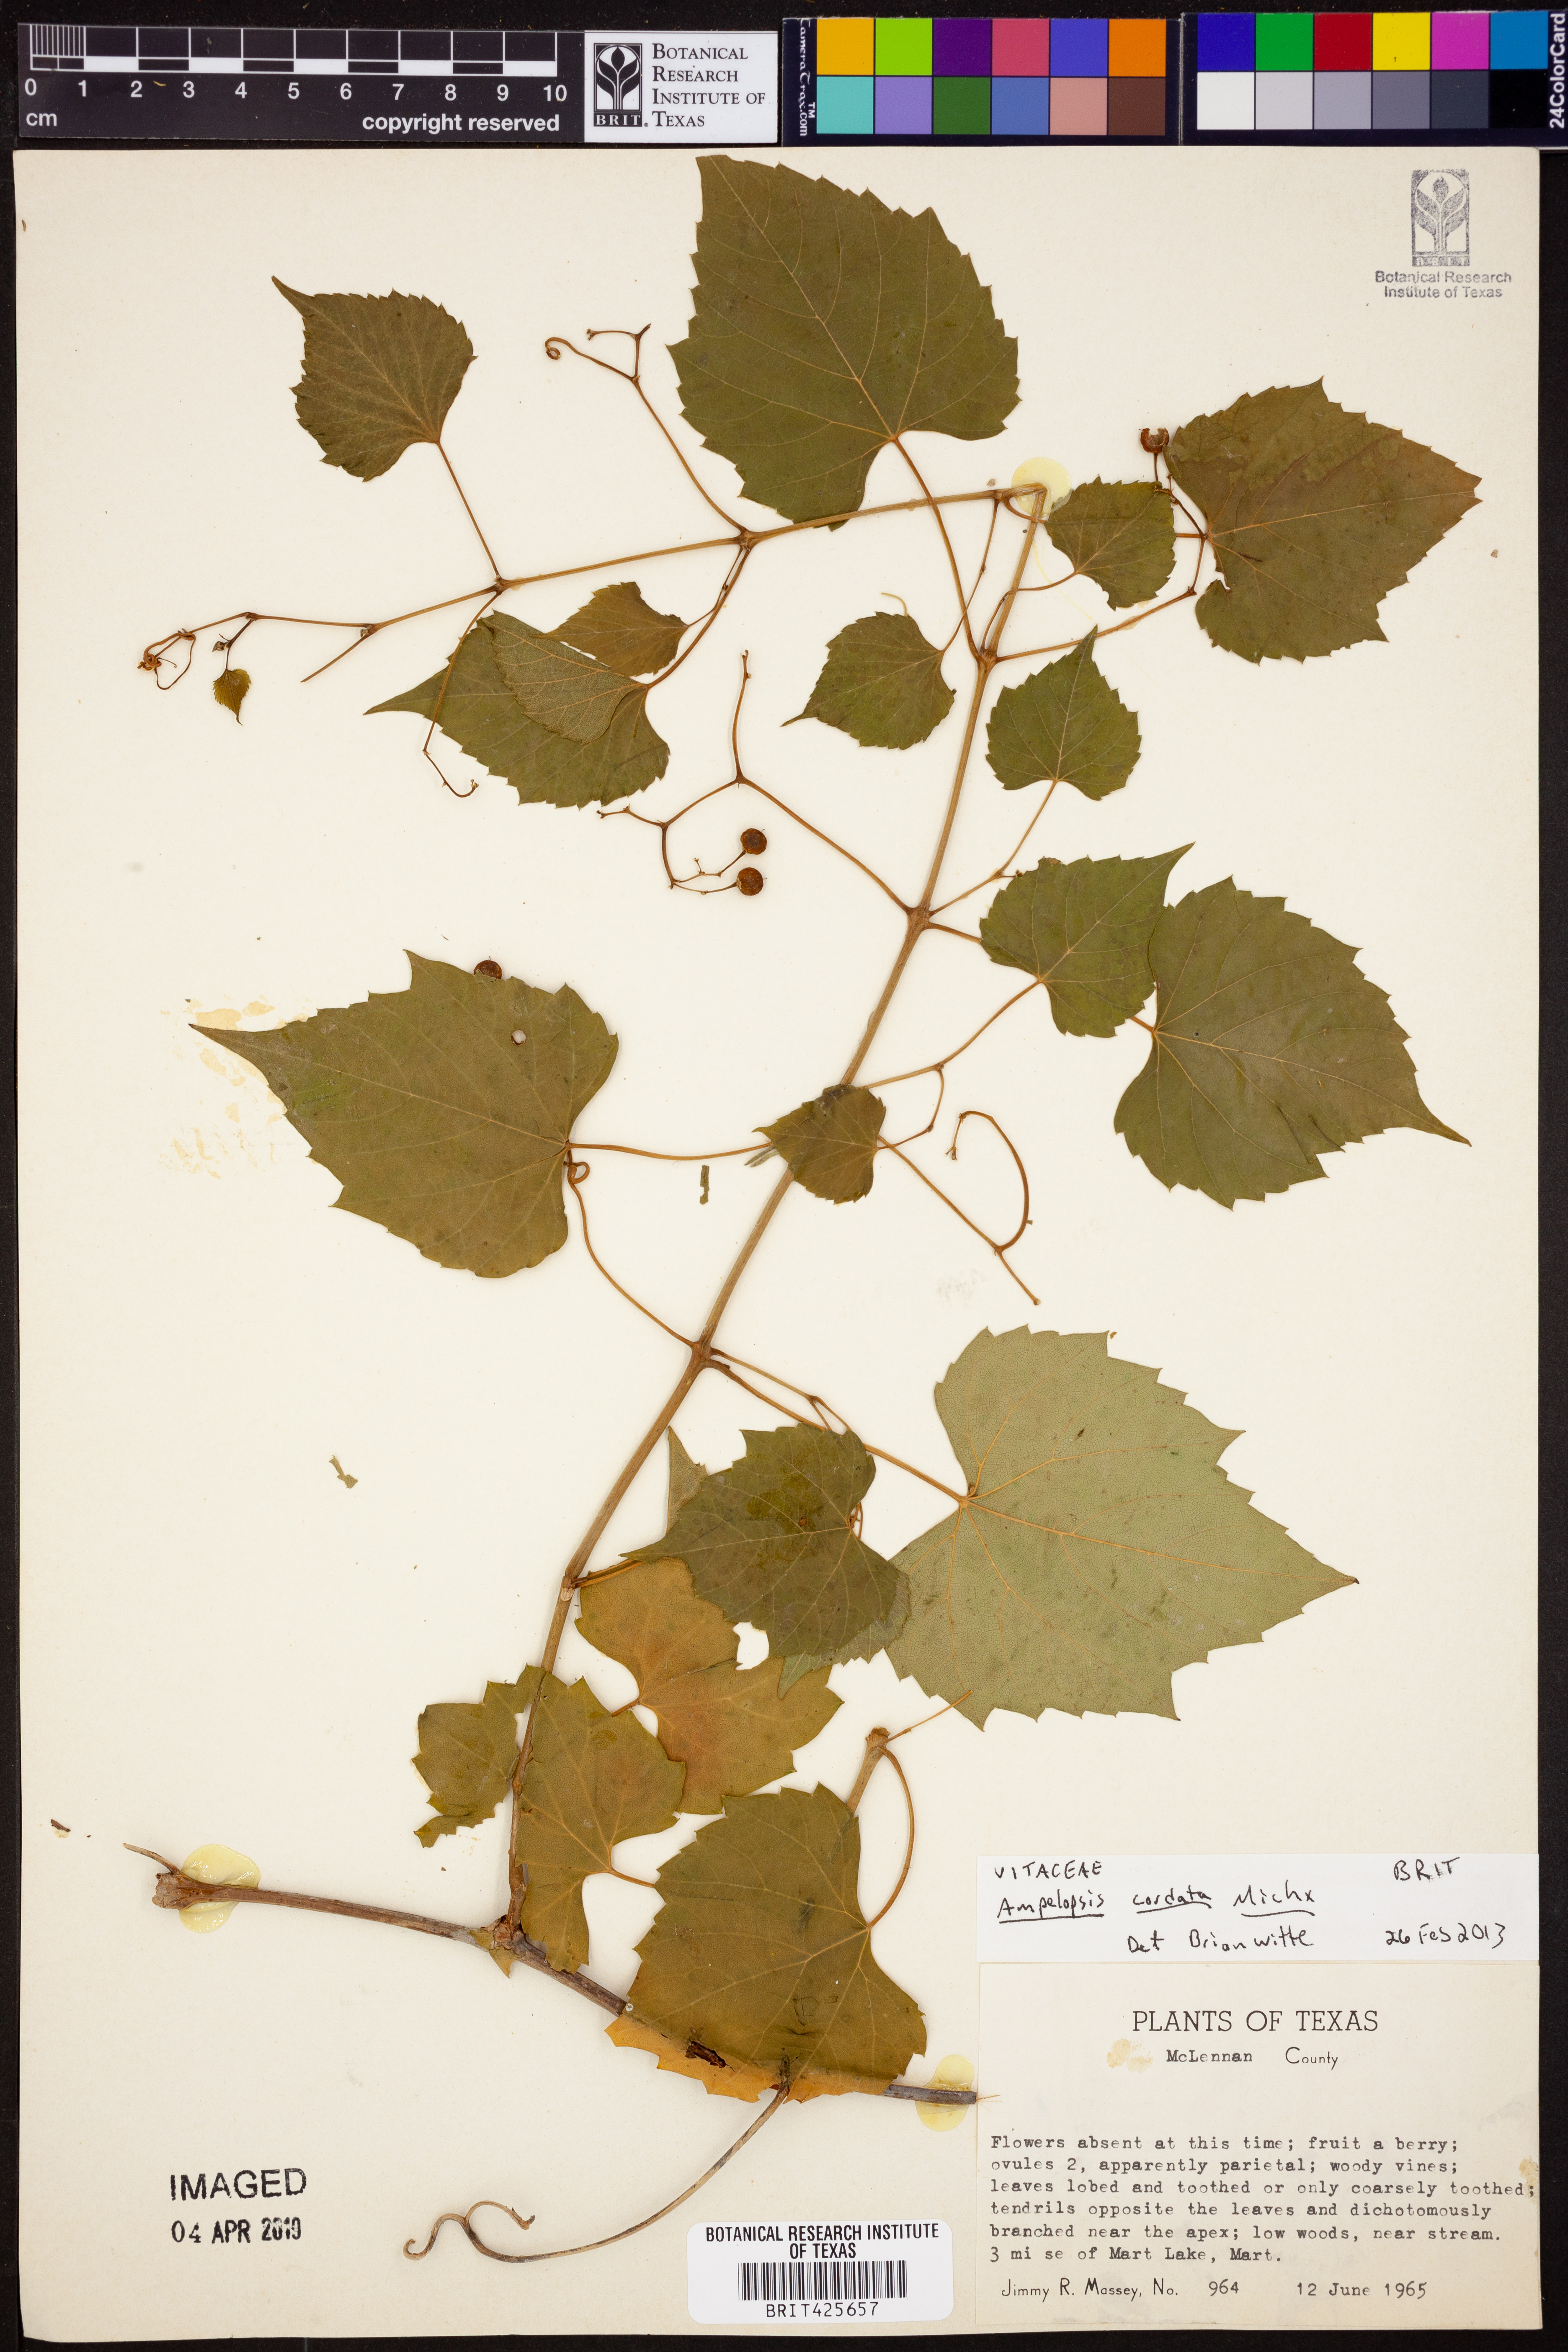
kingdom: Plantae
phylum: Tracheophyta
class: Magnoliopsida
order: Vitales
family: Vitaceae
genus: Ampelopsis
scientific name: Ampelopsis cordata
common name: Heart-leaf ampelopsis
